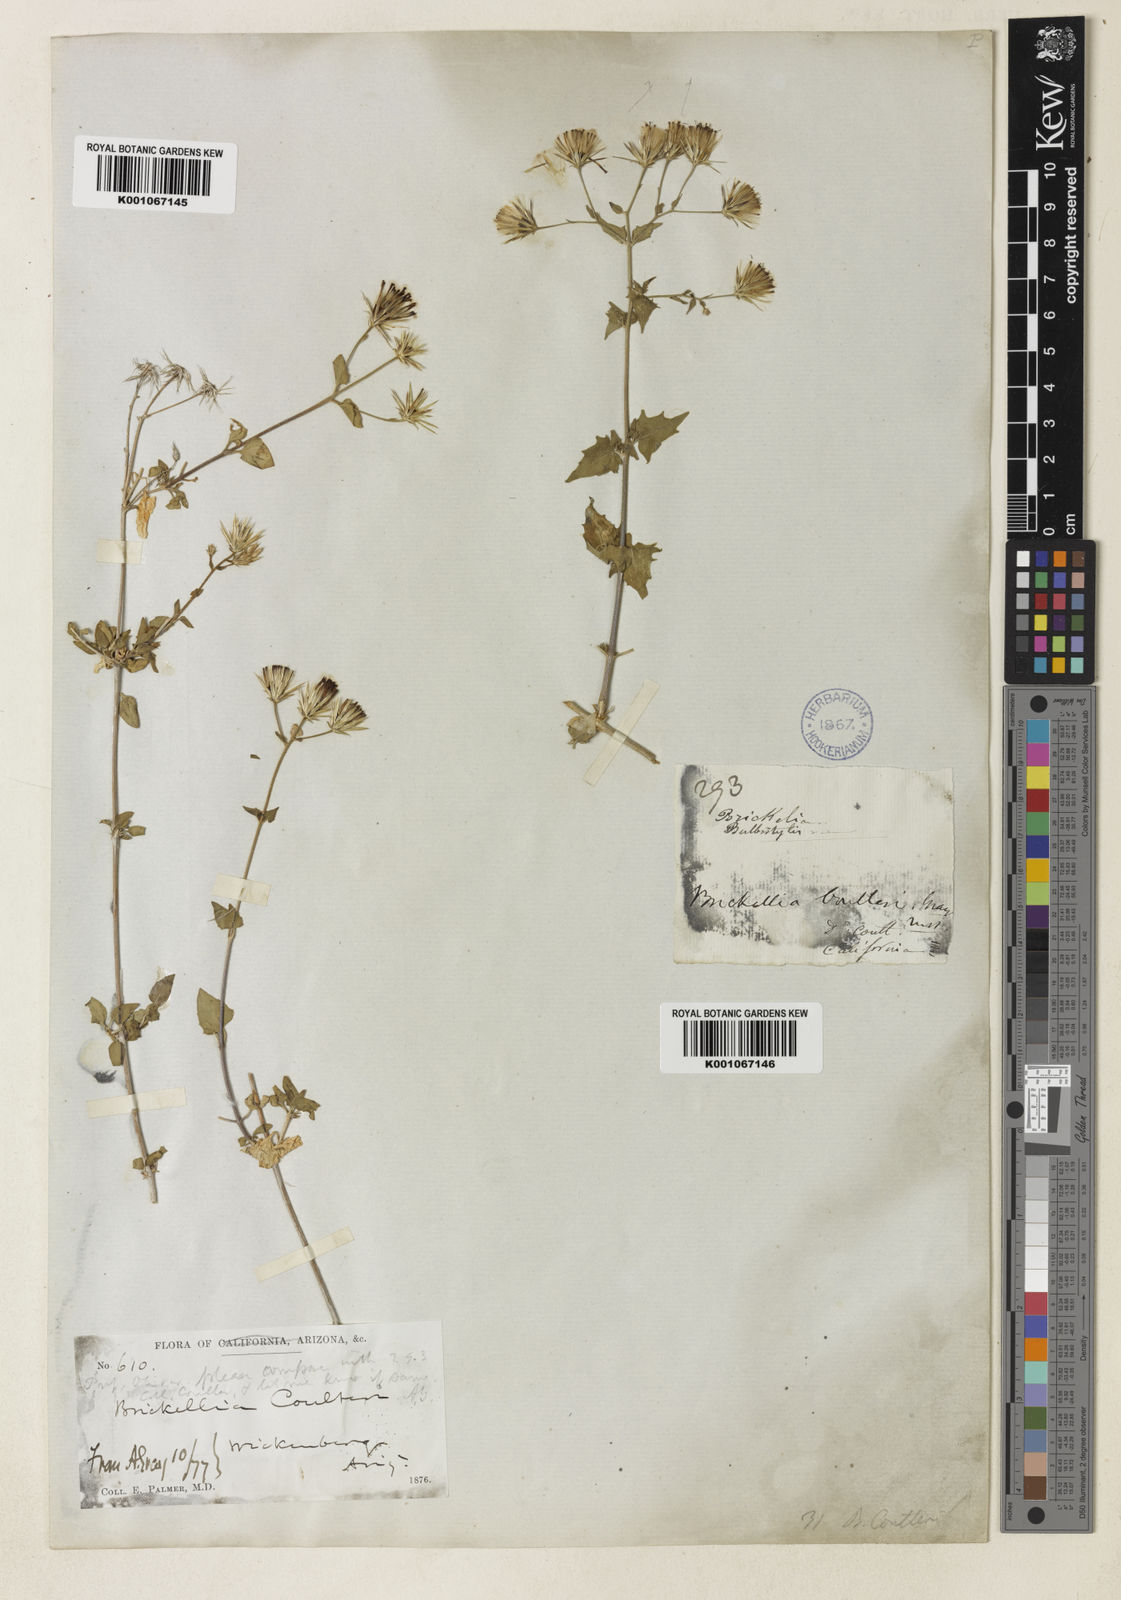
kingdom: Plantae
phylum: Tracheophyta
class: Magnoliopsida
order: Asterales
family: Asteraceae
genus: Brickellia
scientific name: Brickellia coulteri
